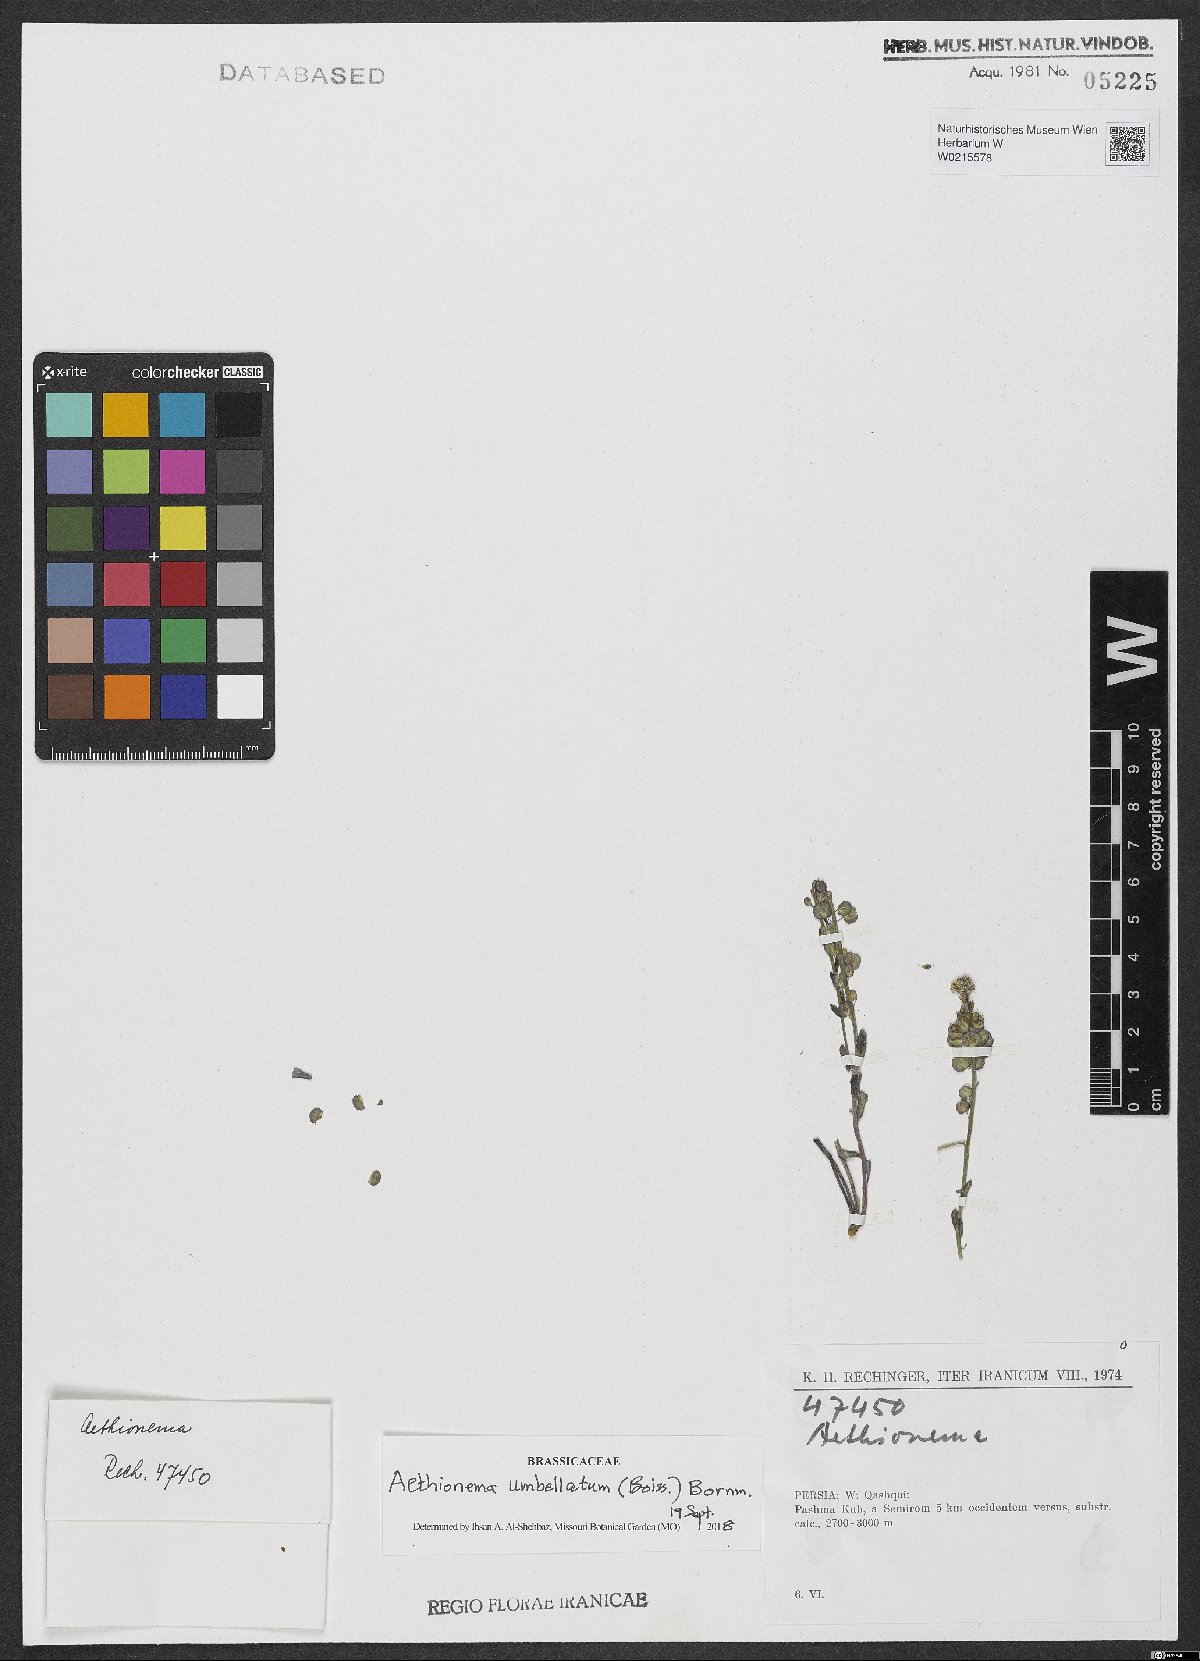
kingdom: Plantae
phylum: Tracheophyta
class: Magnoliopsida
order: Brassicales
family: Brassicaceae
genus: Aethionema
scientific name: Aethionema umbellatum
